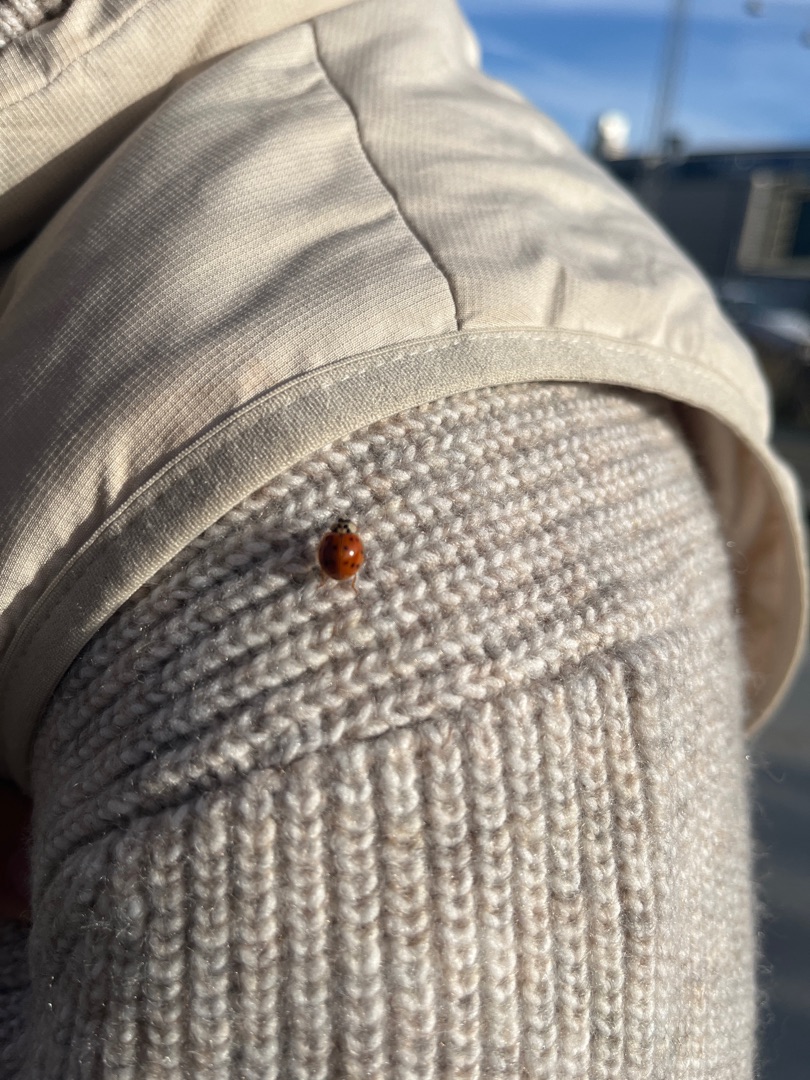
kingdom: Animalia
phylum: Arthropoda
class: Insecta
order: Coleoptera
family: Coccinellidae
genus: Harmonia
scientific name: Harmonia axyridis
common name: Harlekinmariehøne
